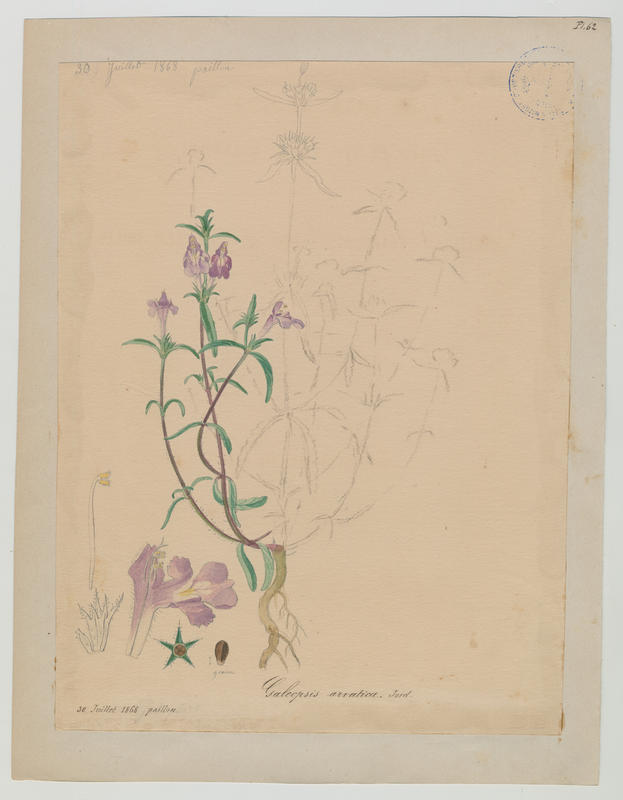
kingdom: Plantae
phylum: Tracheophyta
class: Magnoliopsida
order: Lamiales
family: Lamiaceae
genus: Galeopsis
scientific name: Galeopsis ladanum
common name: Broad-leaved hemp-nettle
